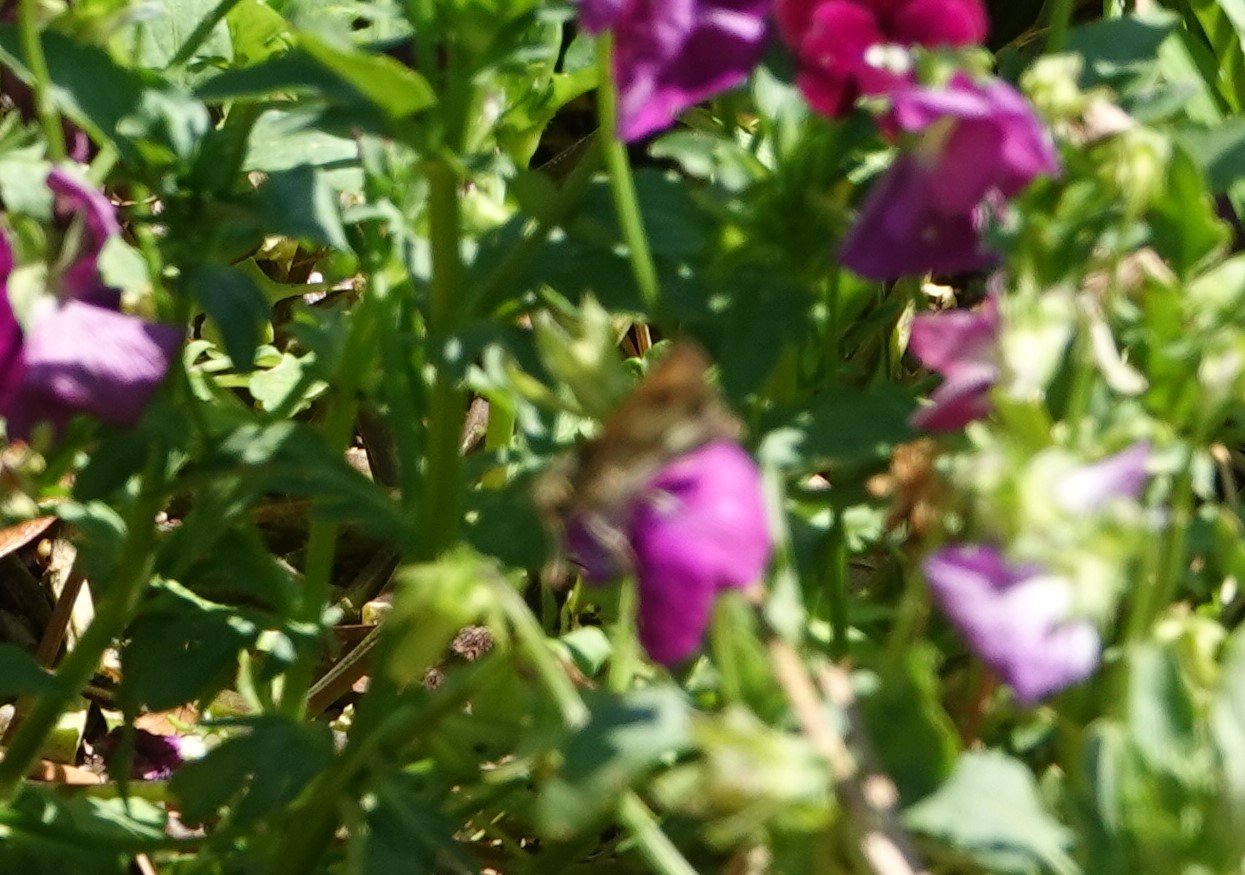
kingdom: Animalia
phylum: Arthropoda
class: Insecta
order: Lepidoptera
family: Hesperiidae
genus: Polites
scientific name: Polites vibex
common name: Whirlabout
